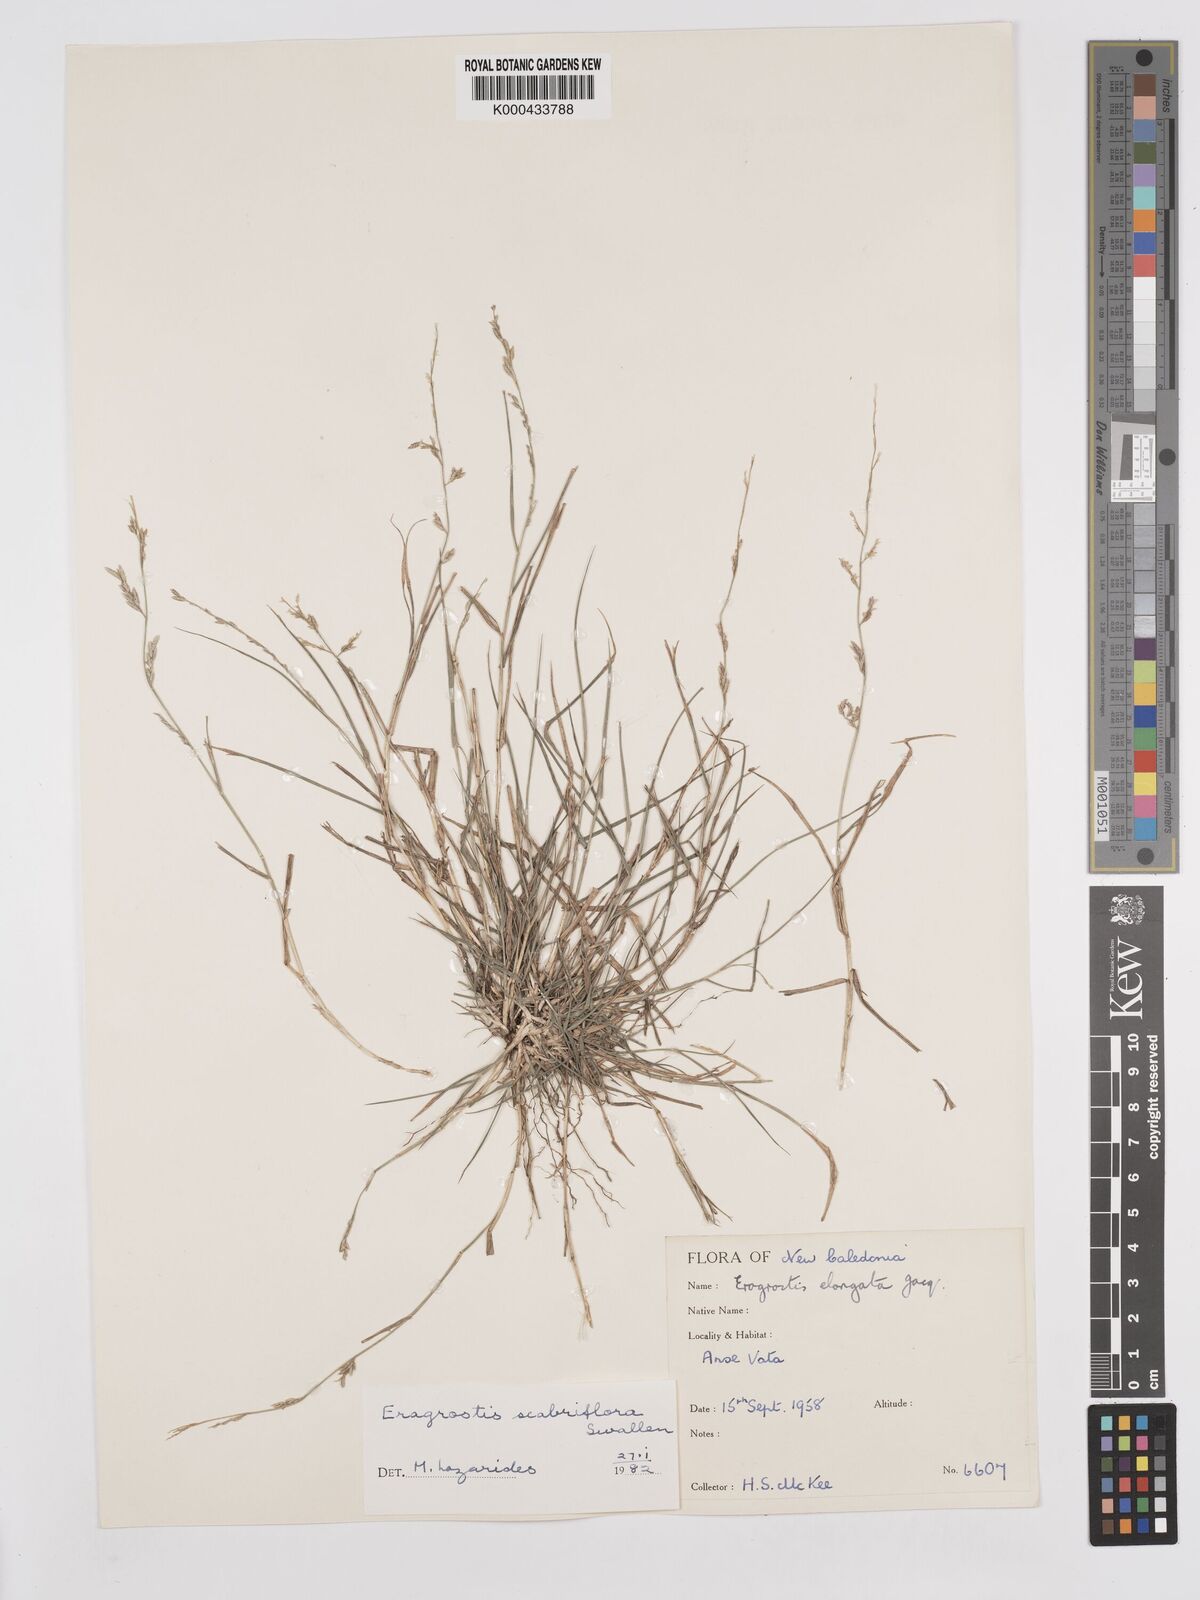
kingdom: Plantae
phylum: Tracheophyta
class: Liliopsida
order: Poales
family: Poaceae
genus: Eragrostis
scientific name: Eragrostis scabriflora
